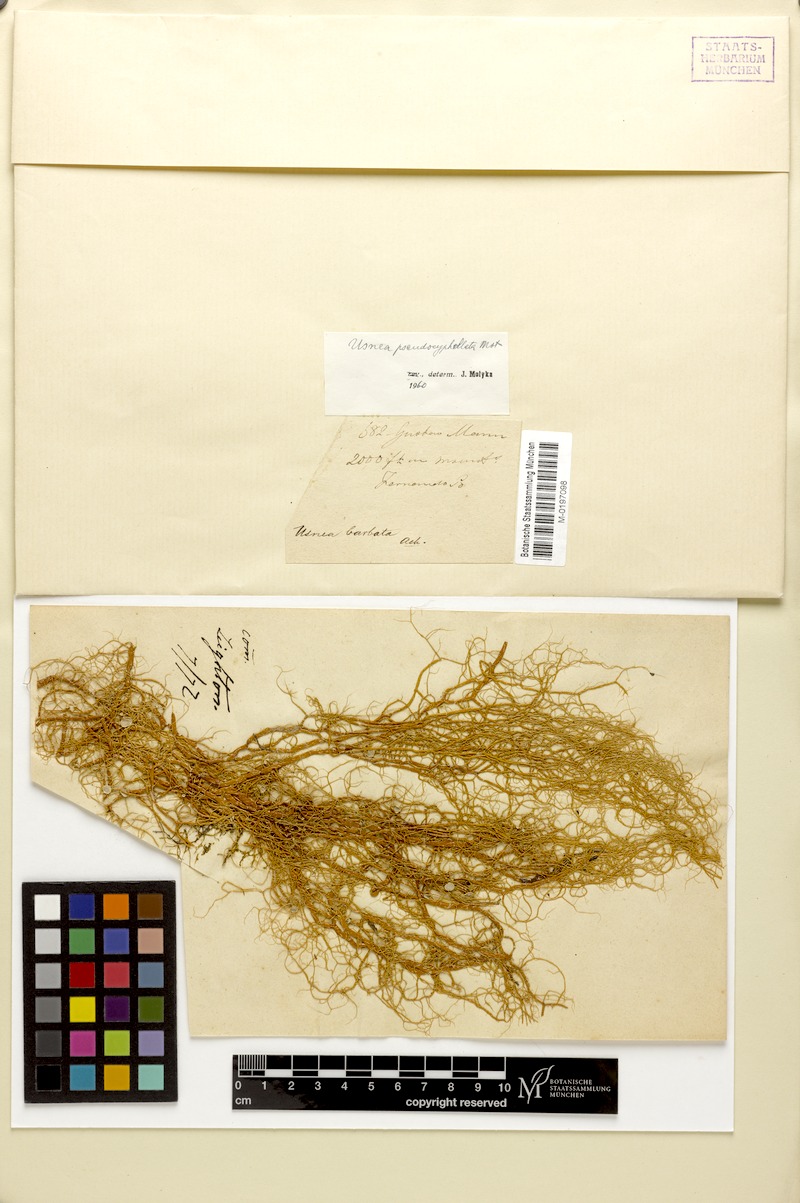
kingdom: Fungi
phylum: Ascomycota
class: Lecanoromycetes
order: Lecanorales
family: Parmeliaceae
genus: Usnea
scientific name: Usnea
